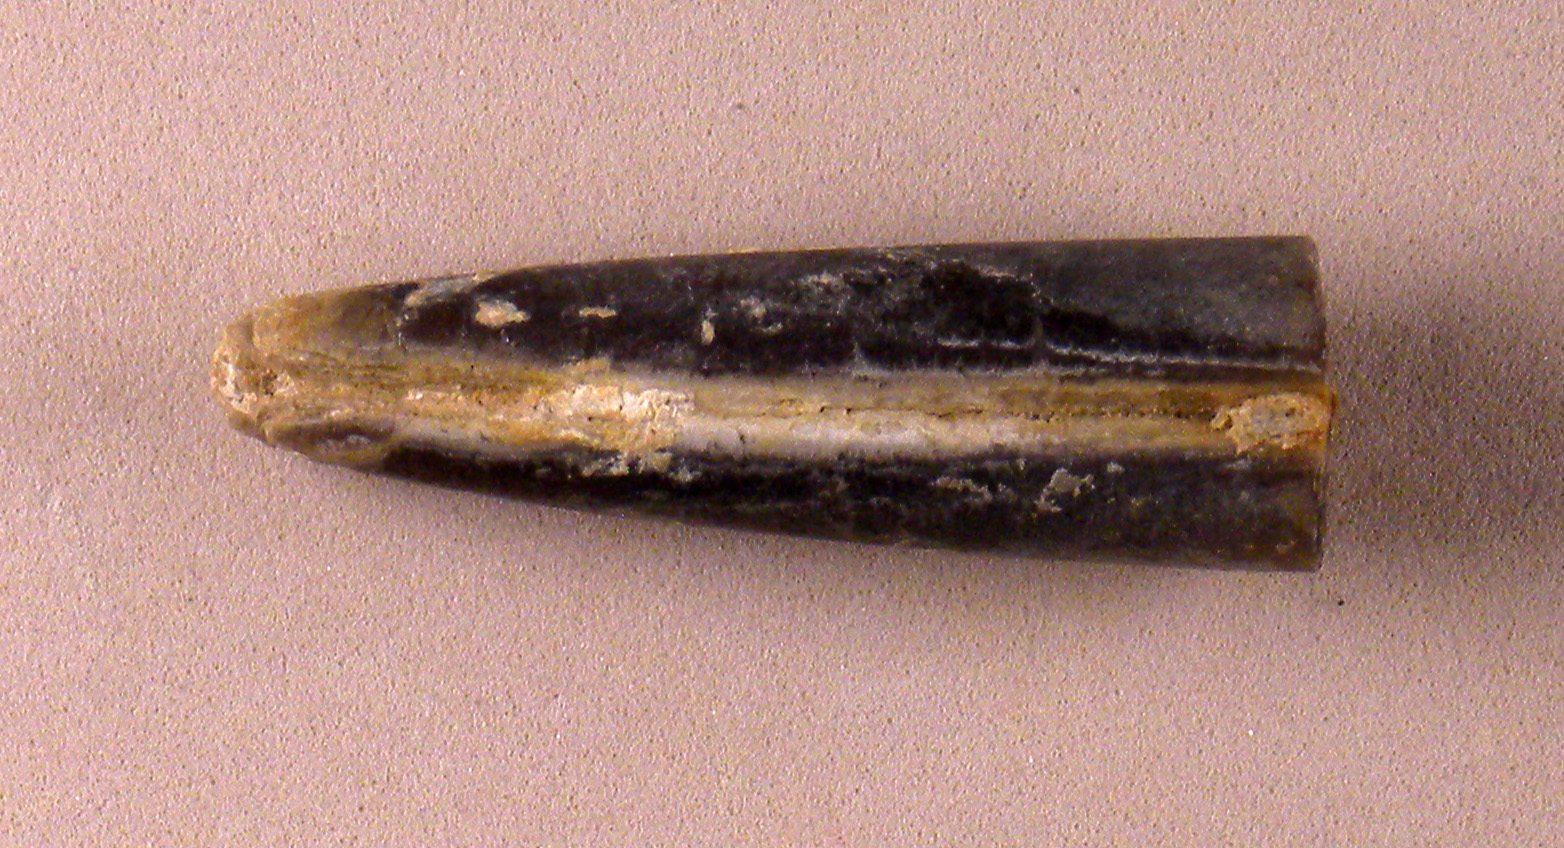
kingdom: Animalia
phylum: Mollusca
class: Cephalopoda
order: Belemnitida
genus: Holcobelus
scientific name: Holcobelus
